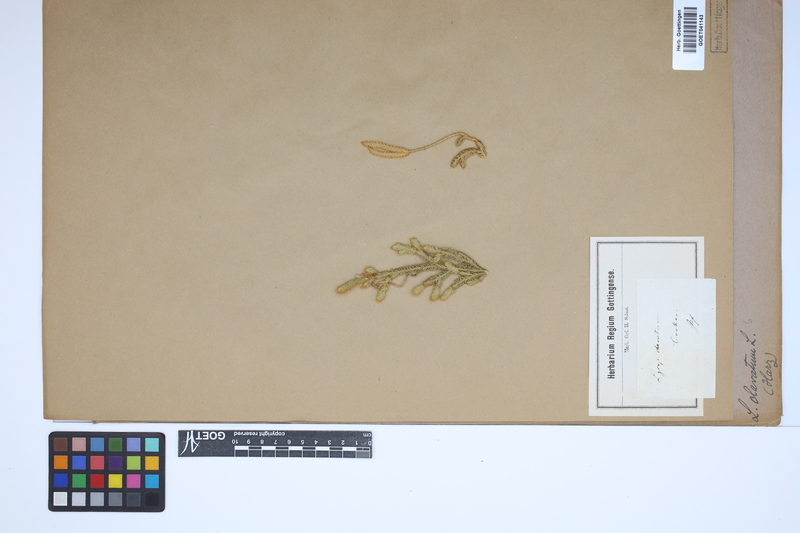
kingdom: Plantae
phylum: Tracheophyta
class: Lycopodiopsida
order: Lycopodiales
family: Lycopodiaceae
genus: Lycopodium
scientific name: Lycopodium clavatum
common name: Stag's-horn clubmoss
